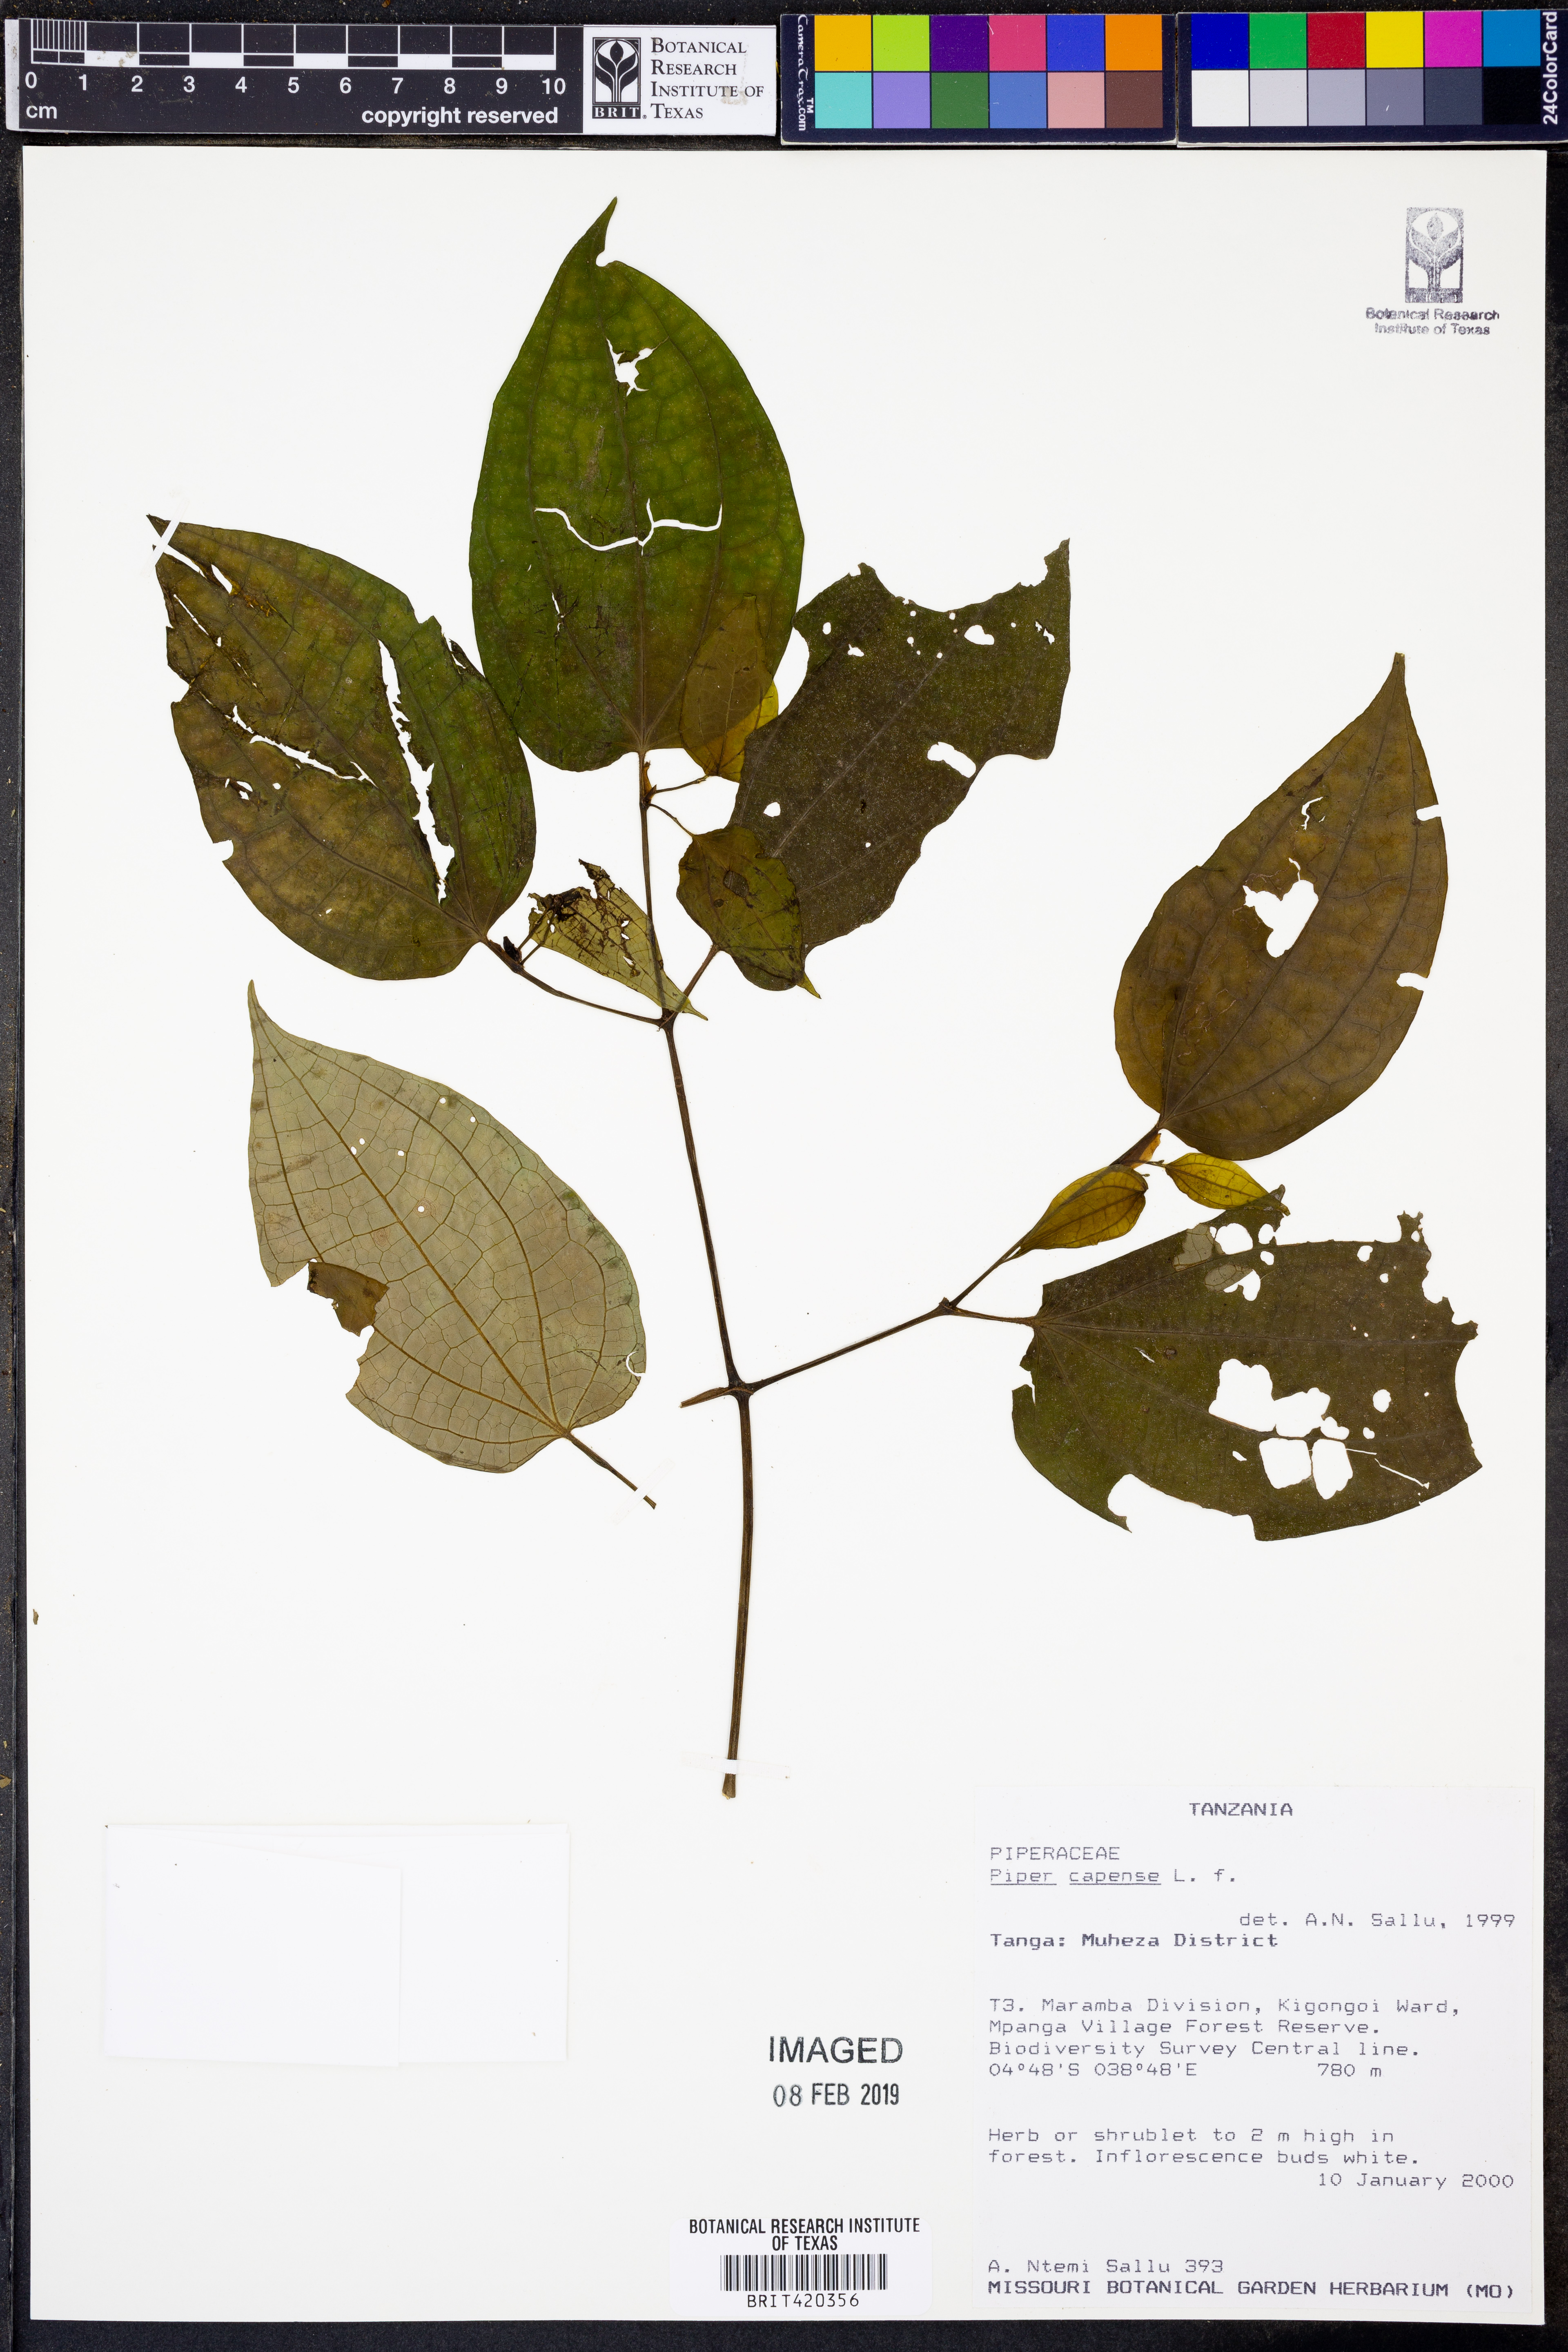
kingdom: Plantae
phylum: Tracheophyta
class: Magnoliopsida
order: Piperales
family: Piperaceae
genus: Piper
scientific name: Piper capense
